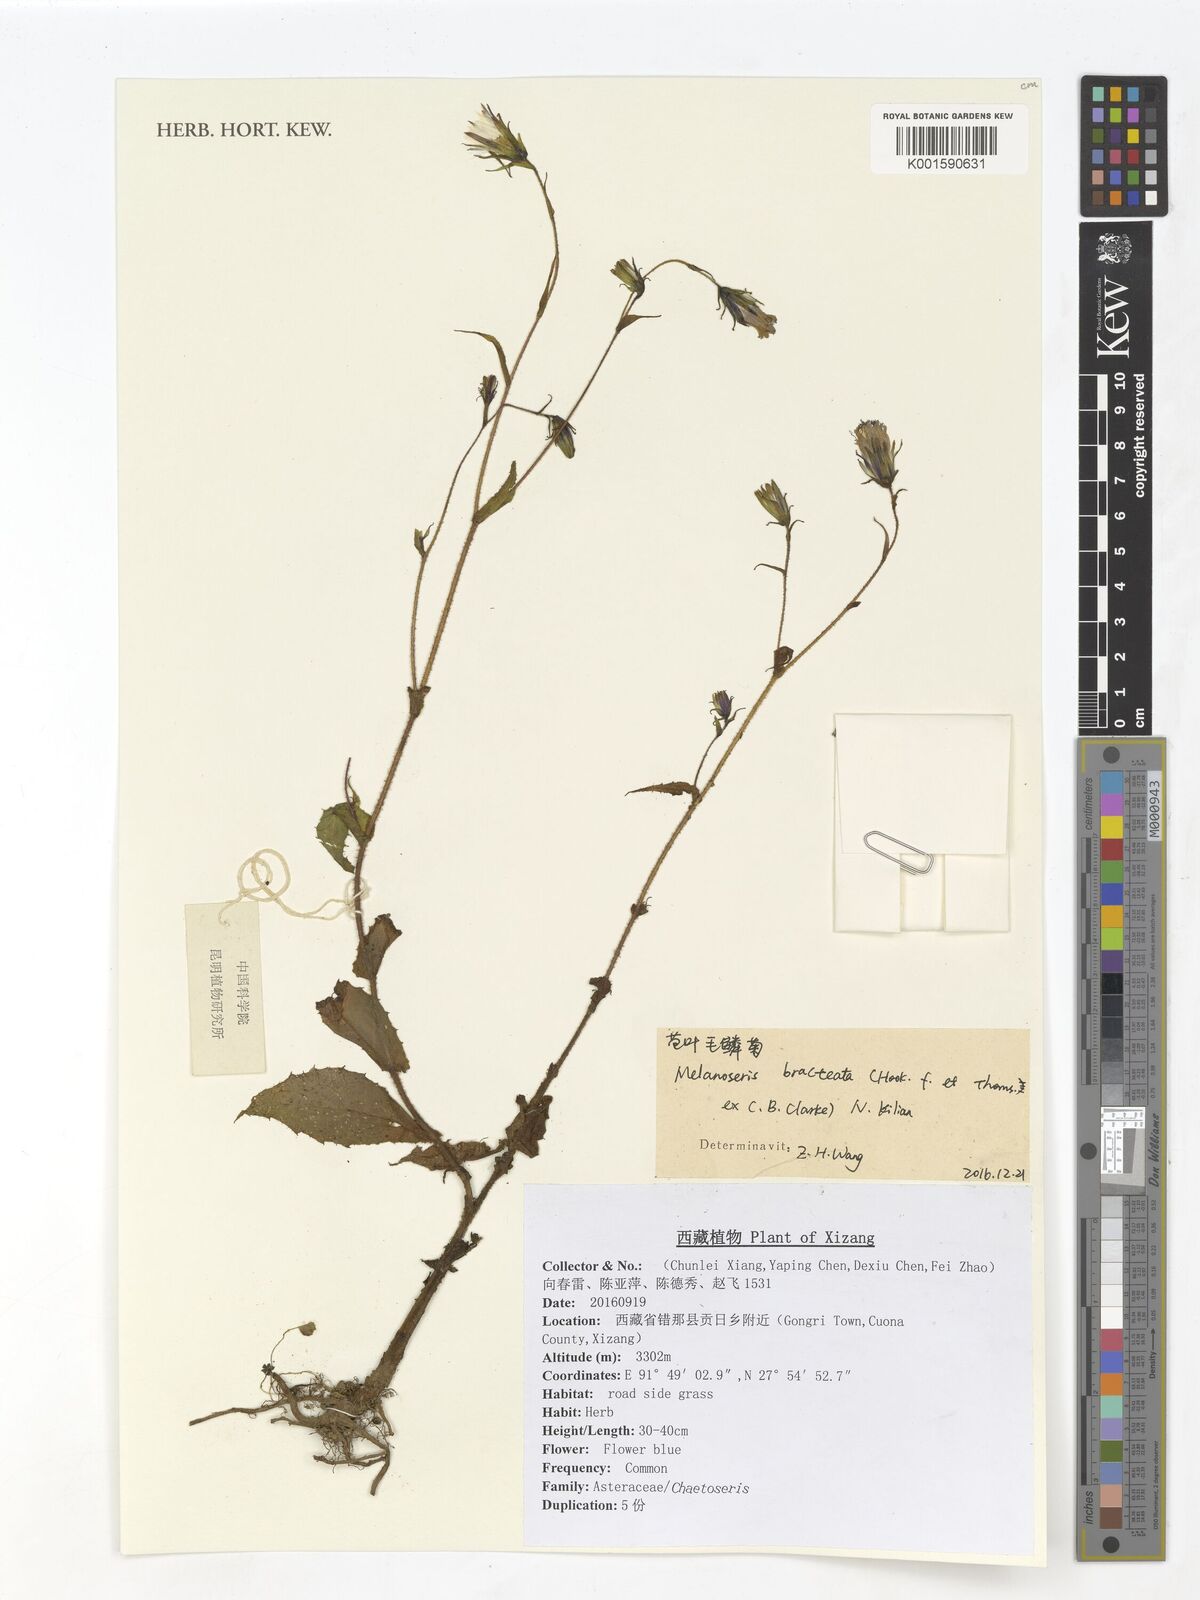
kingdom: Plantae
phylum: Tracheophyta
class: Magnoliopsida
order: Asterales
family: Asteraceae
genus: Lactuca
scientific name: Lactuca bracteata
